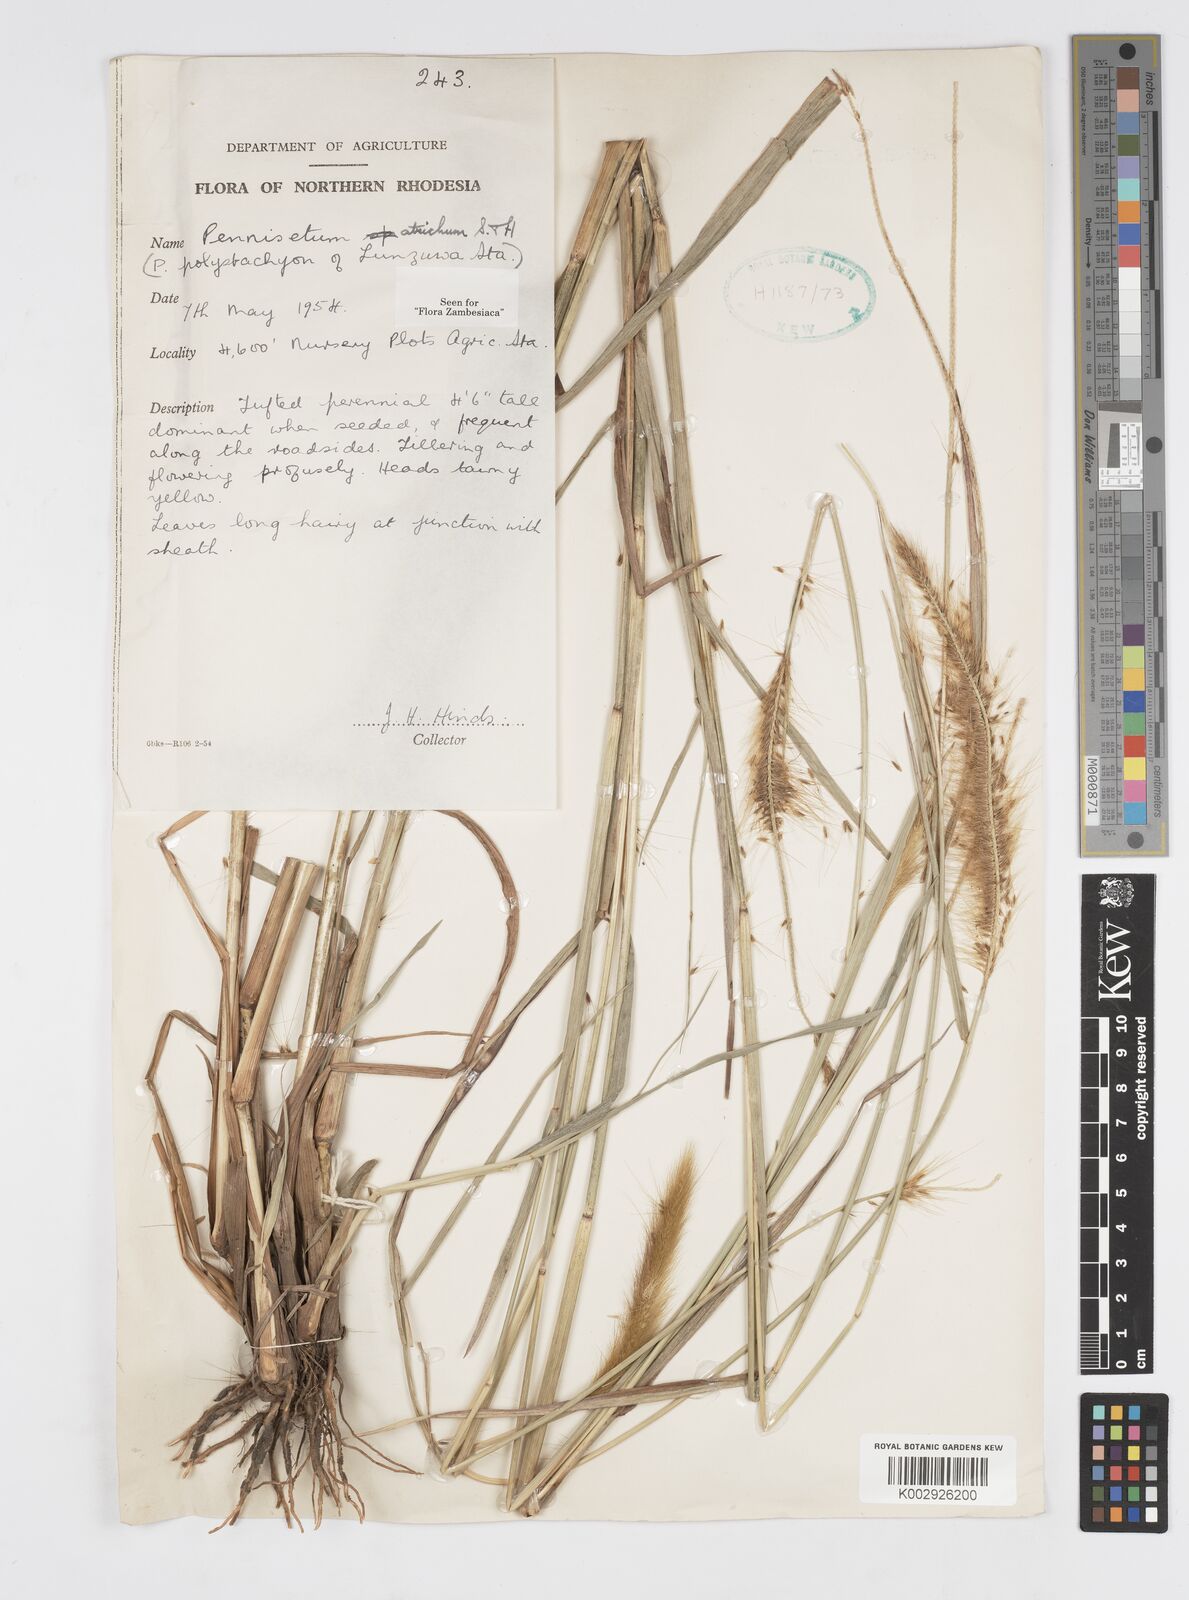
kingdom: Plantae
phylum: Tracheophyta
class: Liliopsida
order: Poales
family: Poaceae
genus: Cenchrus
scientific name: Cenchrus setosus
